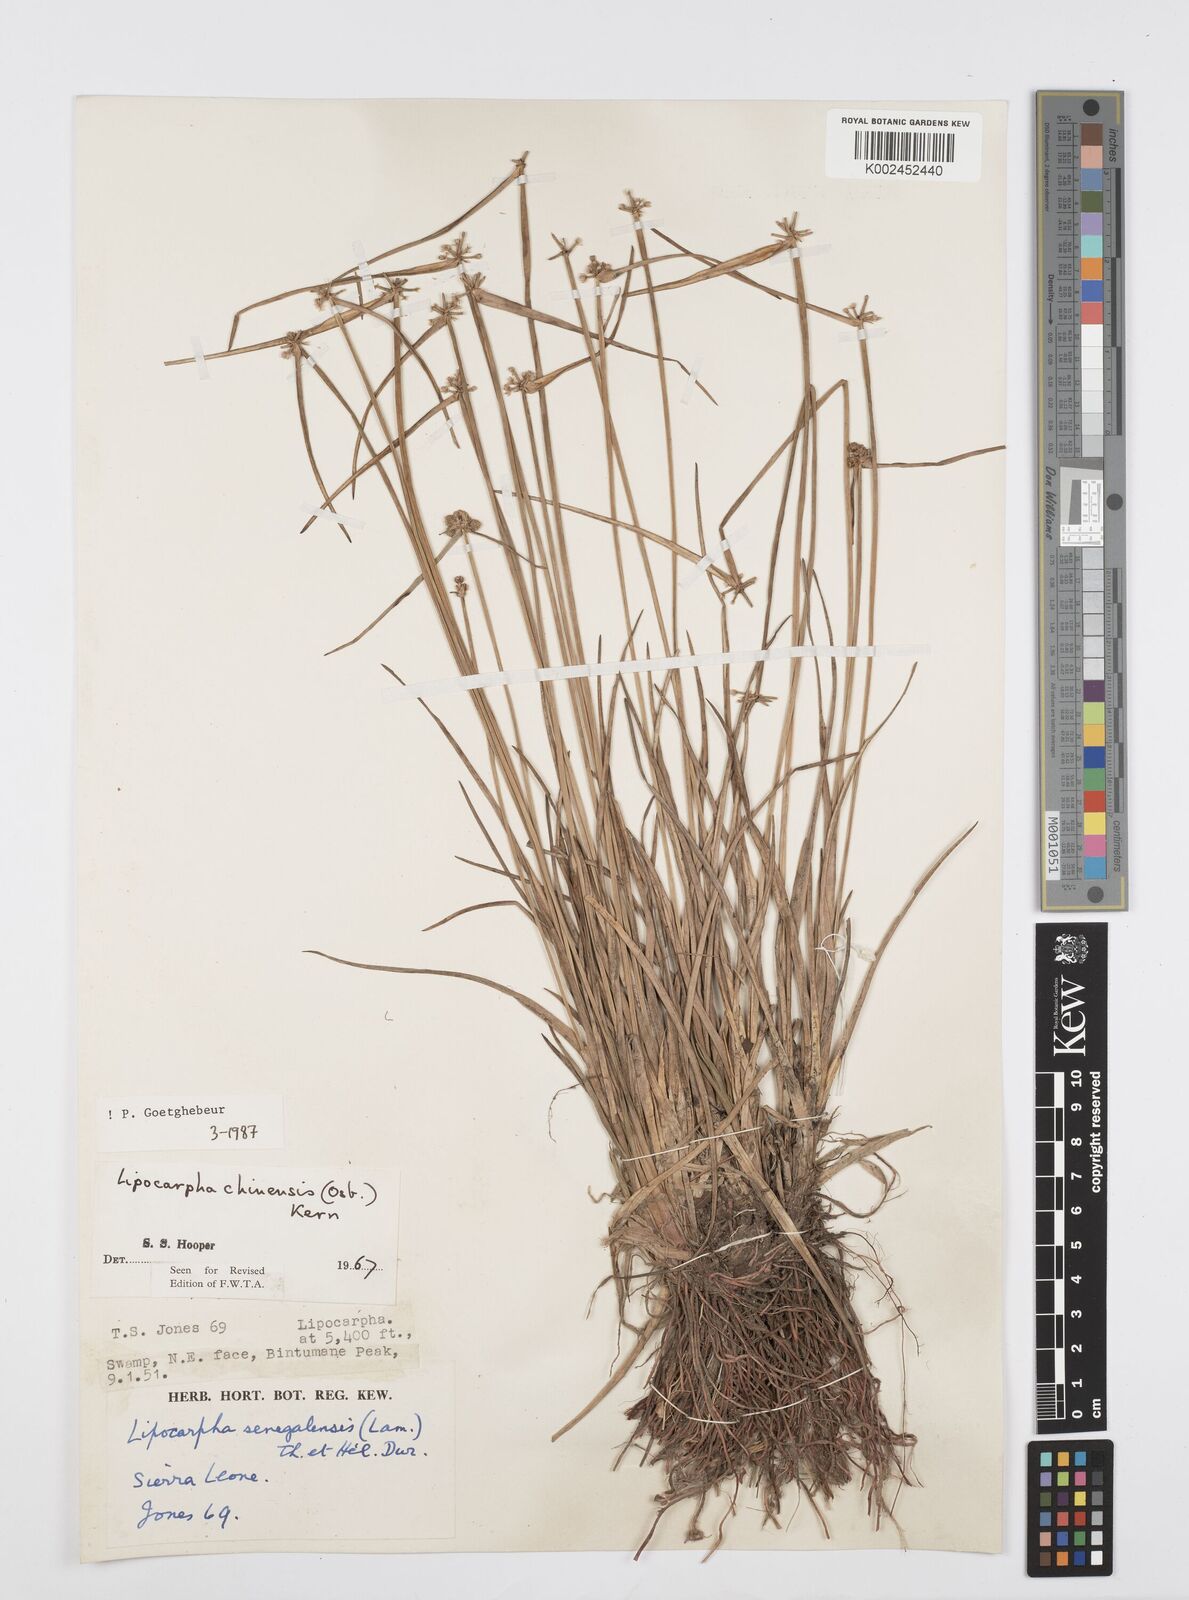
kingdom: Plantae
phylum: Tracheophyta
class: Liliopsida
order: Poales
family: Cyperaceae
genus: Cyperus
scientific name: Cyperus albescens
